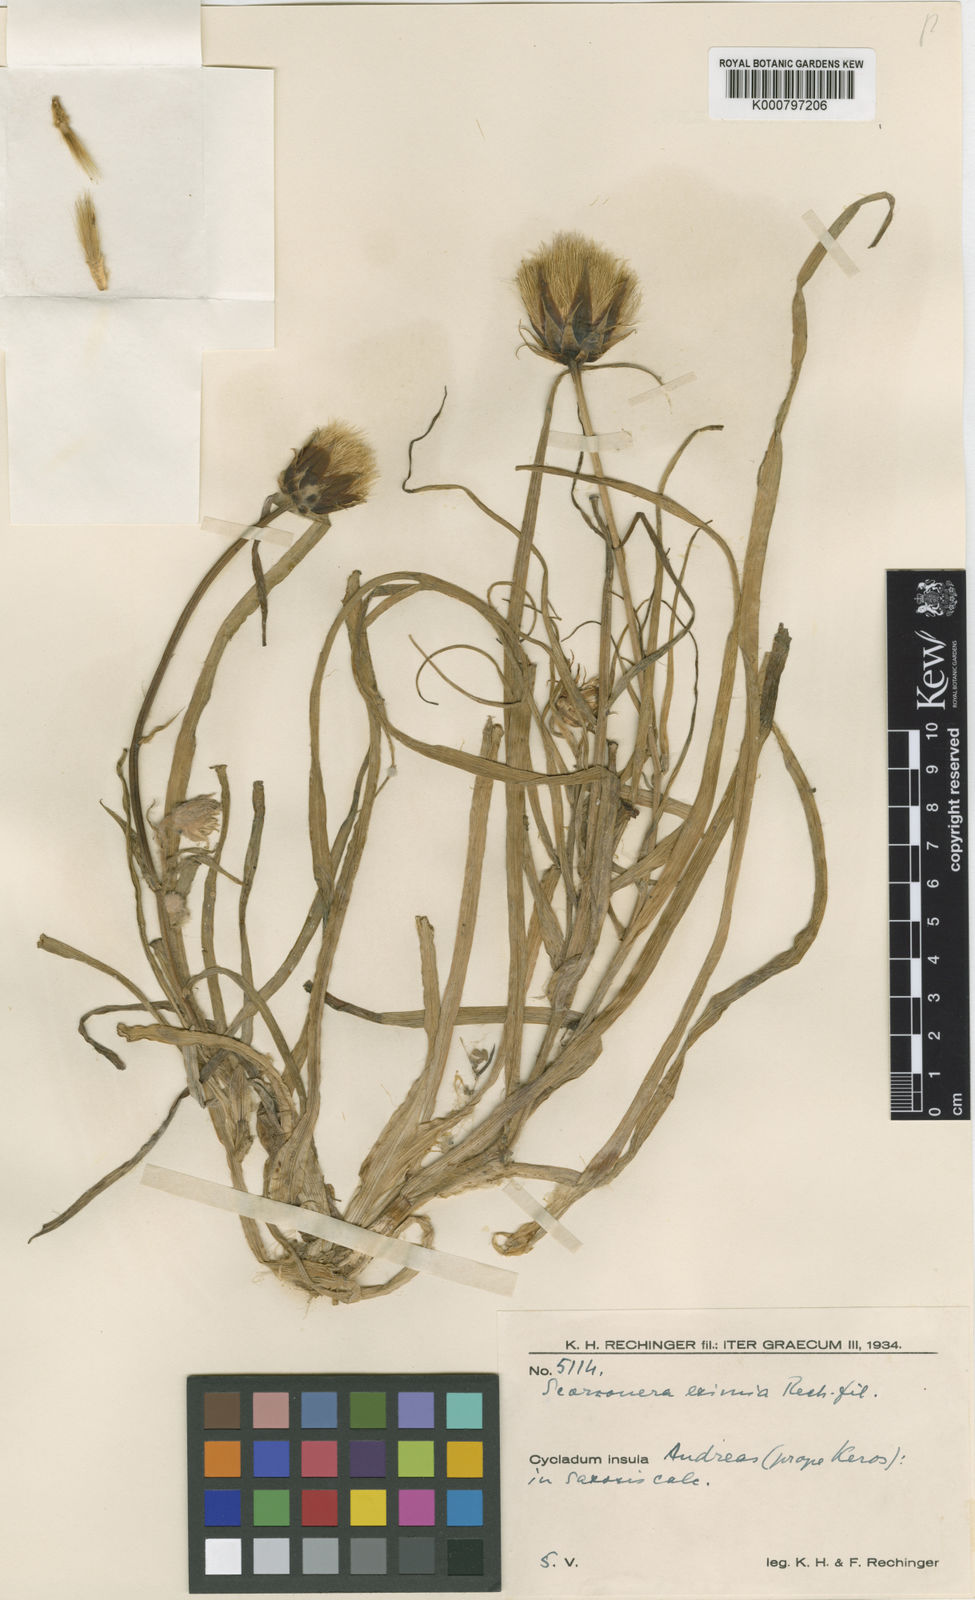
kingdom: Plantae
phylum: Tracheophyta
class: Magnoliopsida
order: Asterales
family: Asteraceae
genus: Gelasia
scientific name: Gelasia araneosa
